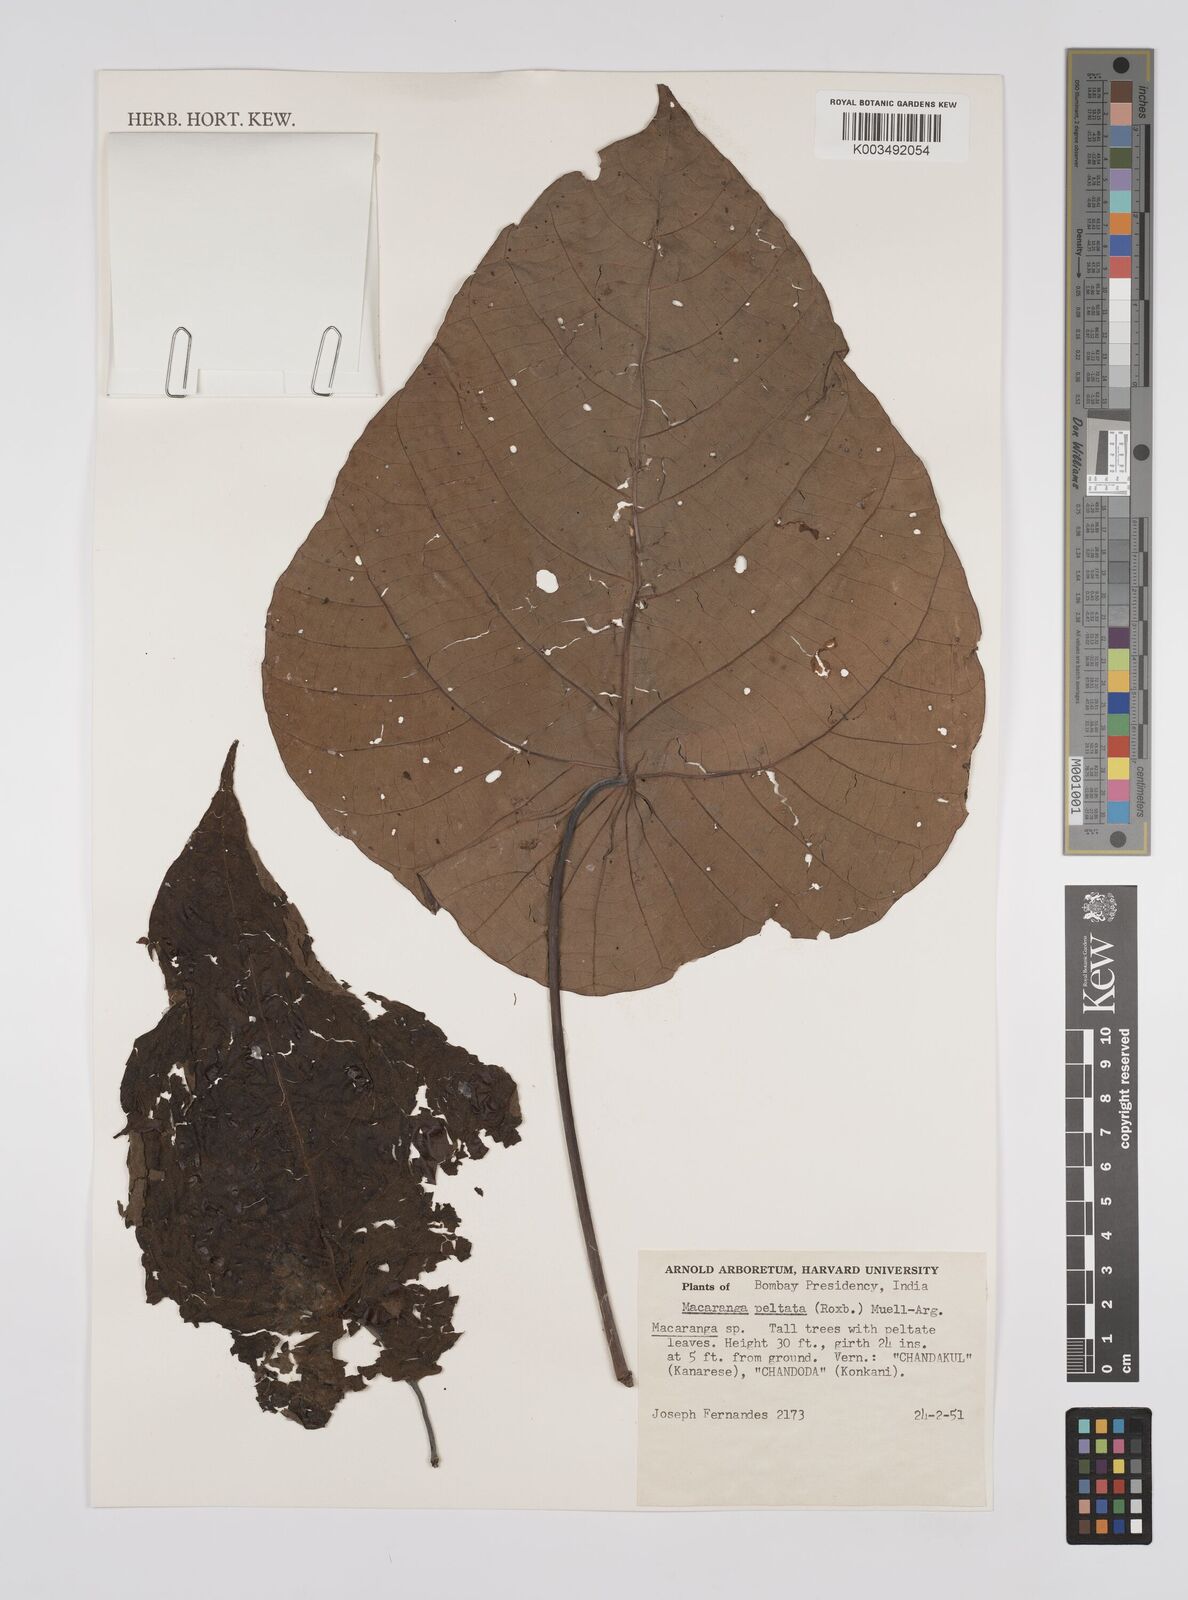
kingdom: Plantae
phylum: Tracheophyta
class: Magnoliopsida
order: Malpighiales
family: Euphorbiaceae
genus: Macaranga
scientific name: Macaranga peltata
